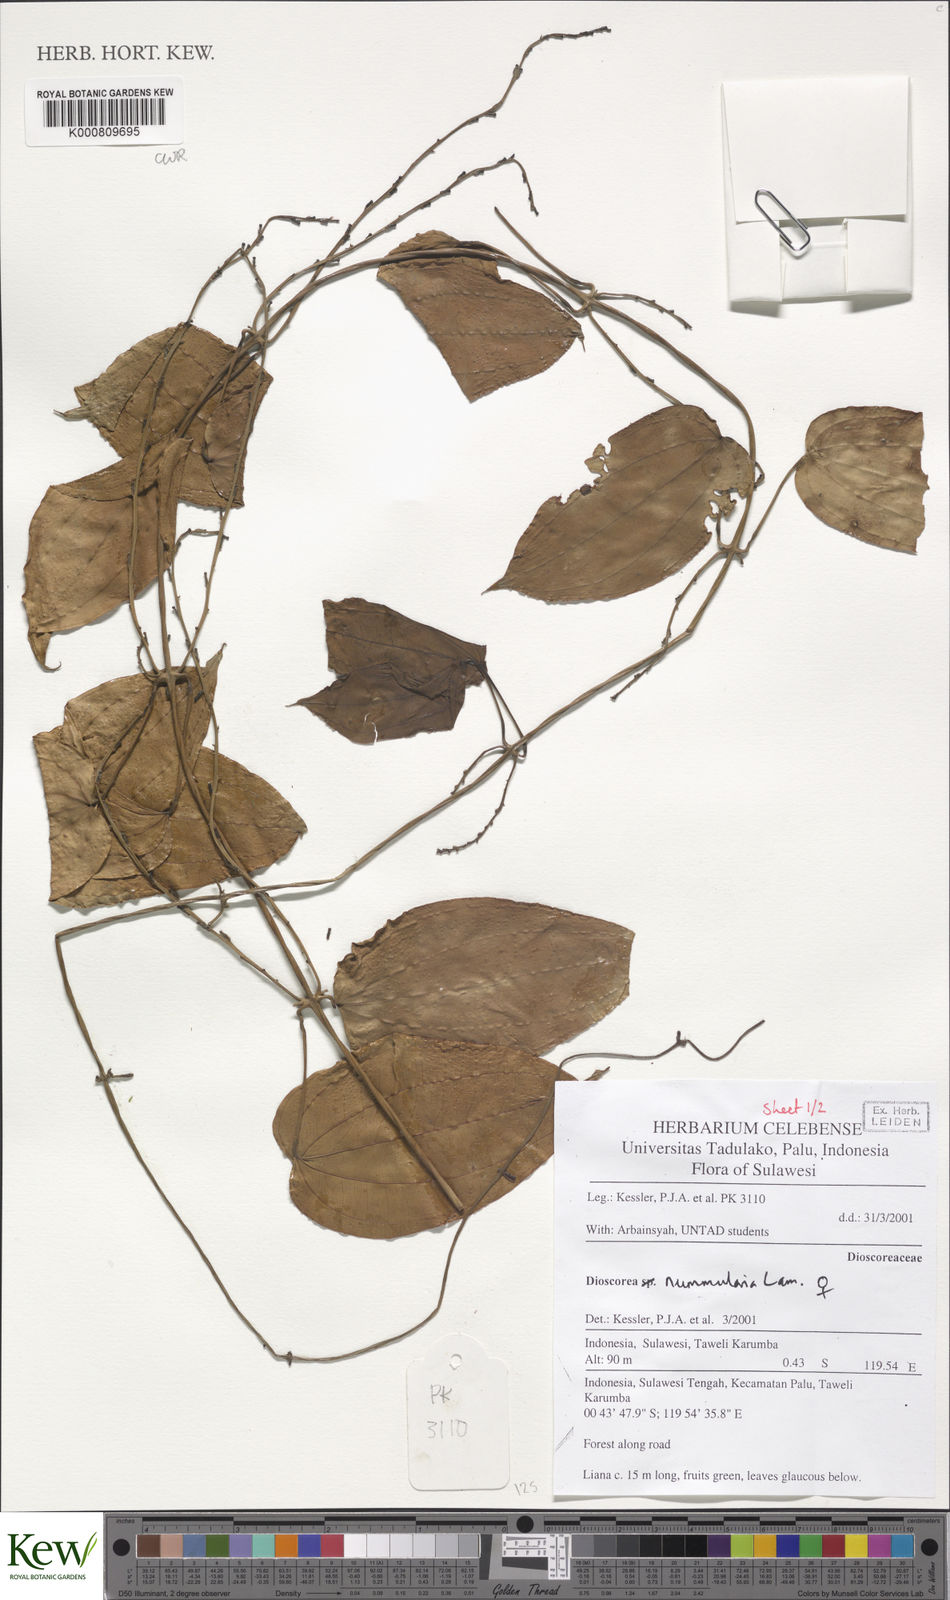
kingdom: Plantae
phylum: Tracheophyta
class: Liliopsida
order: Dioscoreales
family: Dioscoreaceae
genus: Dioscorea
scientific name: Dioscorea nummularia
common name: Pacific yam
